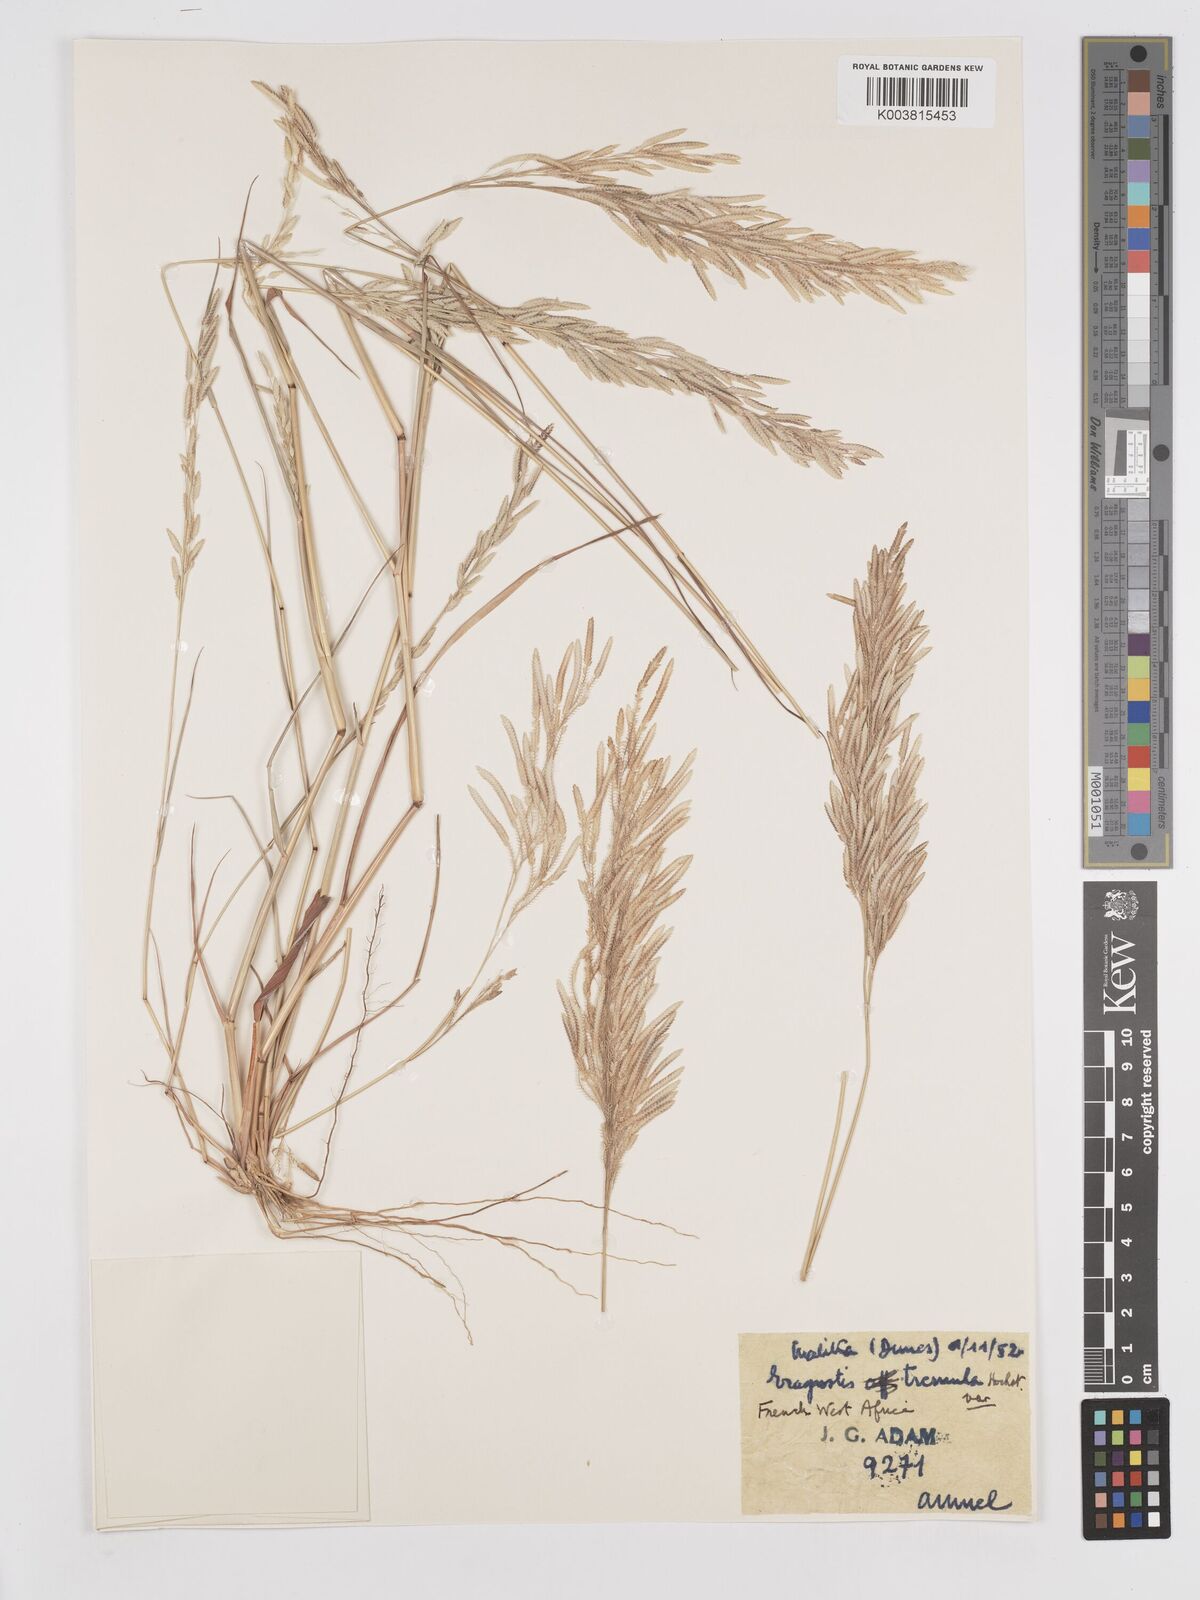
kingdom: Plantae
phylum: Tracheophyta
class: Liliopsida
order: Poales
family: Poaceae
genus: Eragrostis
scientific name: Eragrostis tremula
